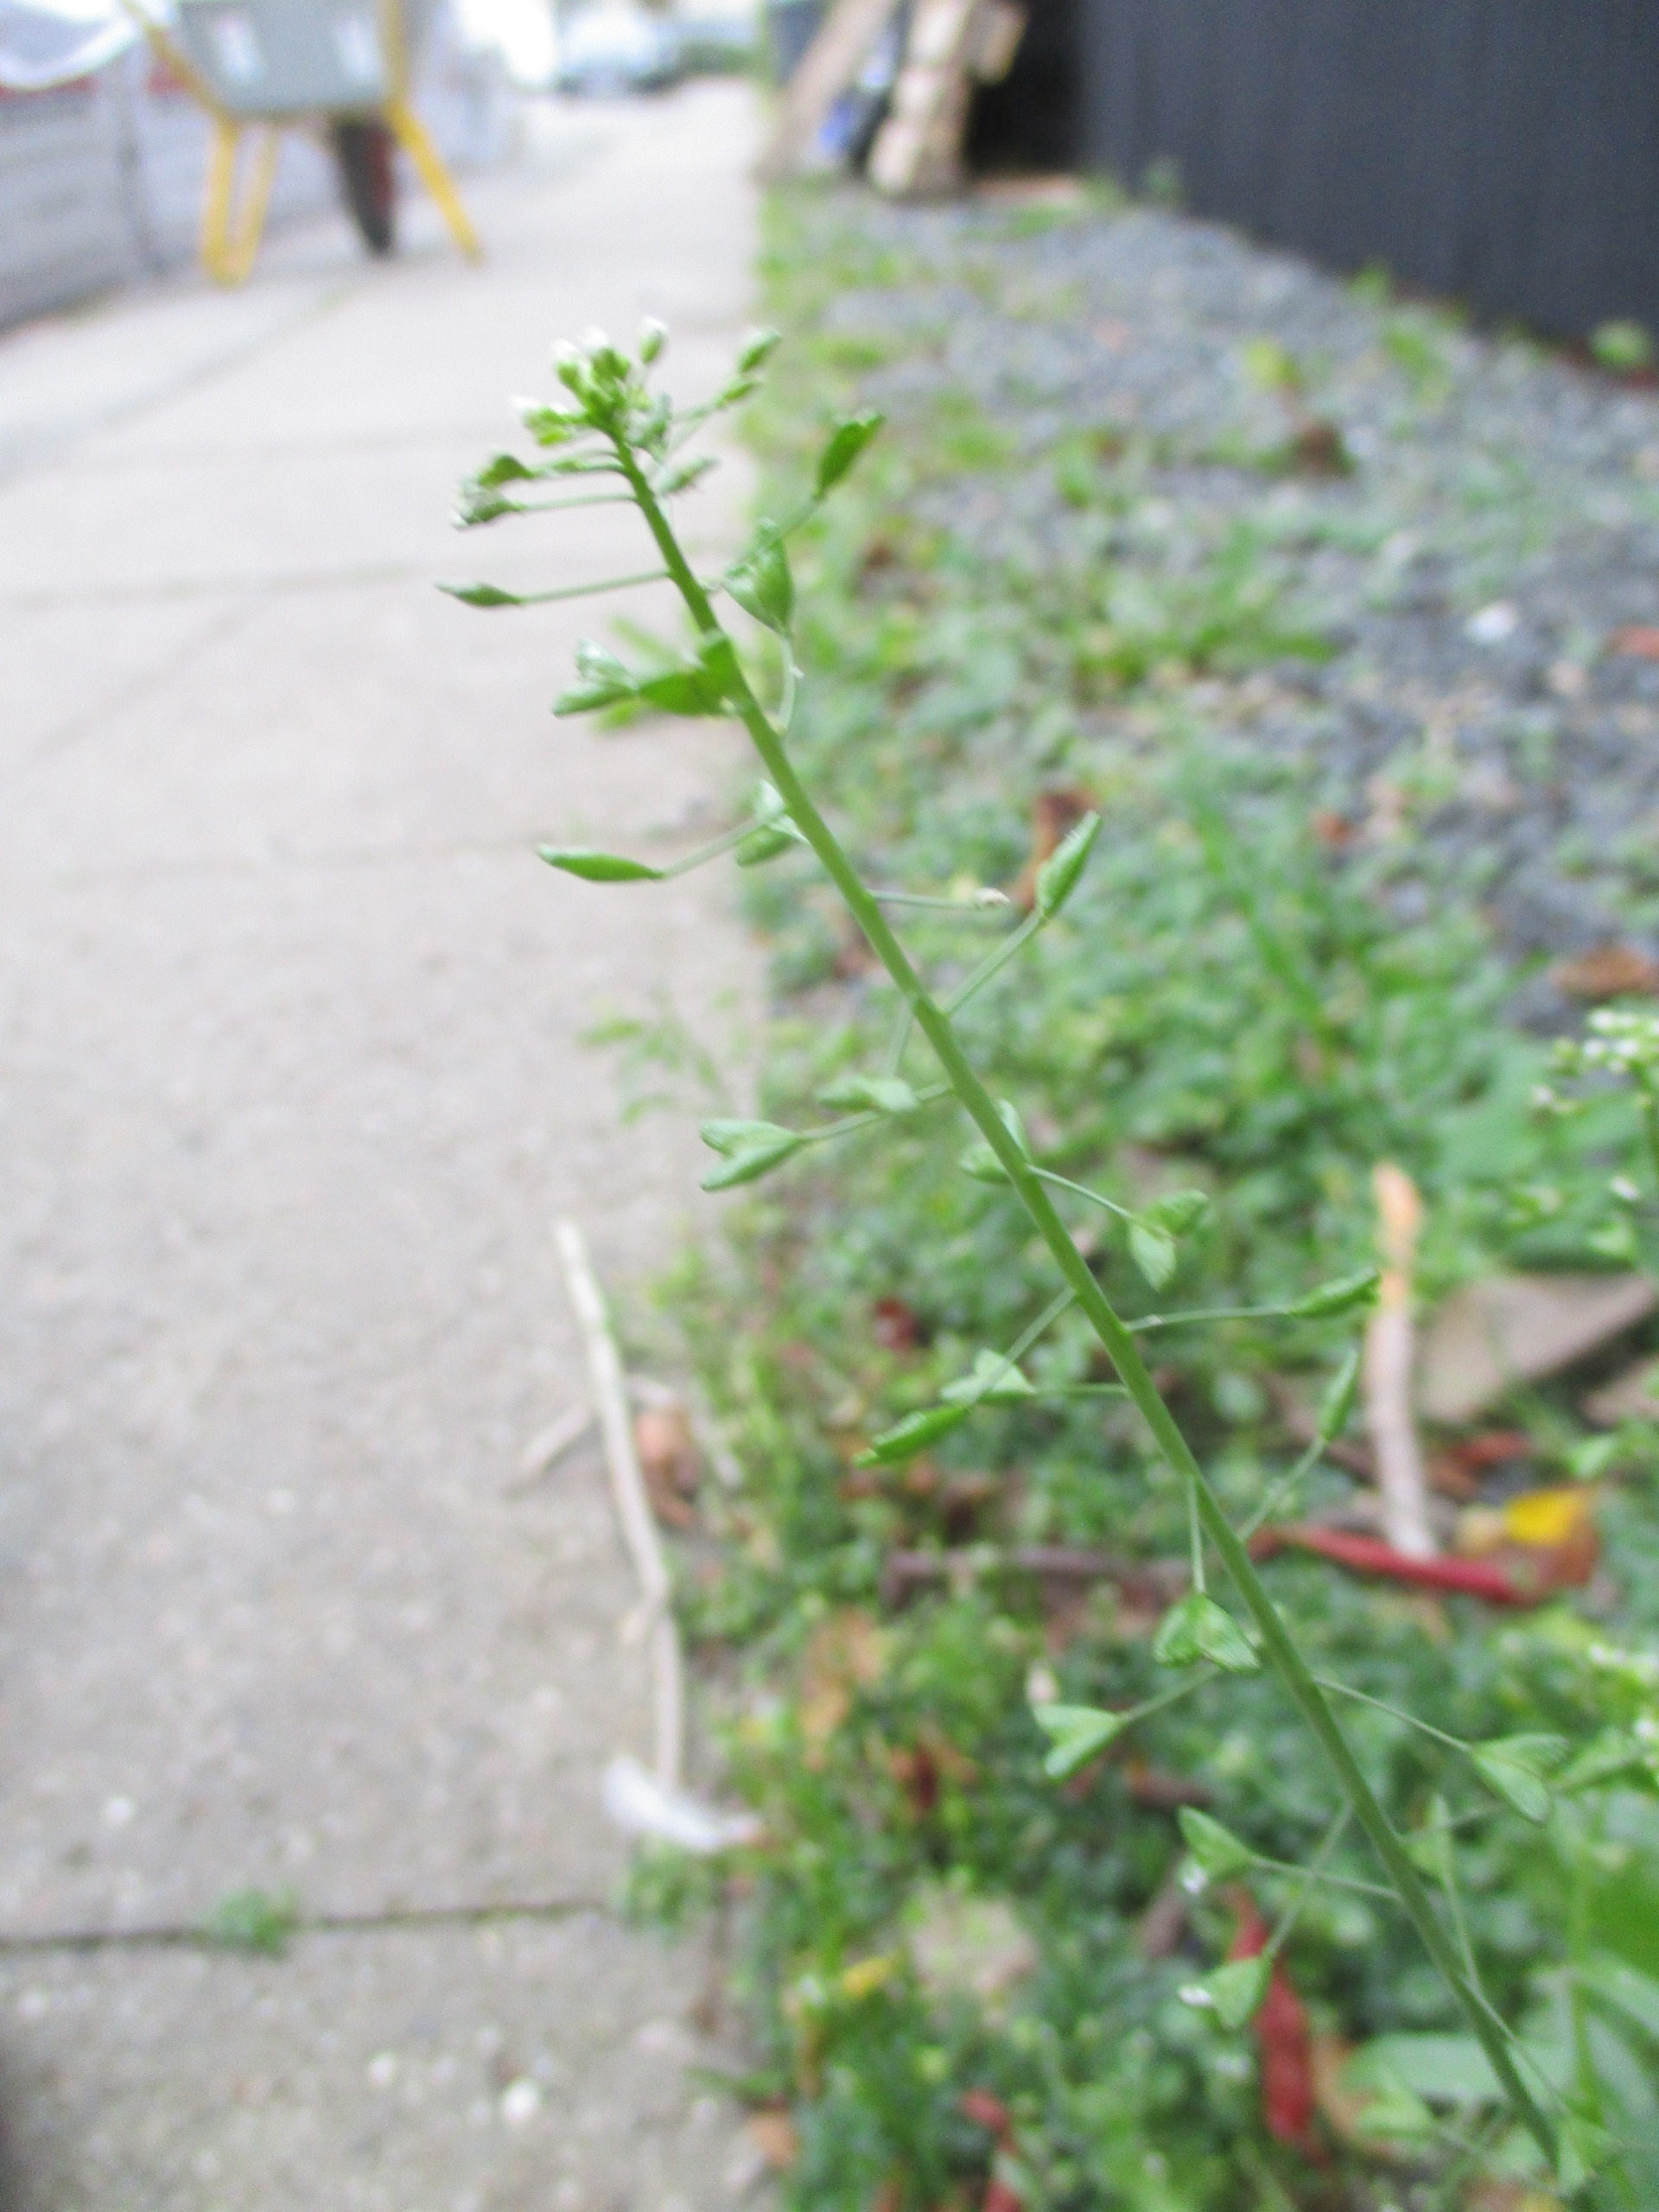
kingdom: Plantae
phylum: Tracheophyta
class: Magnoliopsida
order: Brassicales
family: Brassicaceae
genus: Capsella
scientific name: Capsella bursa-pastoris
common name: Hyrdetaske
